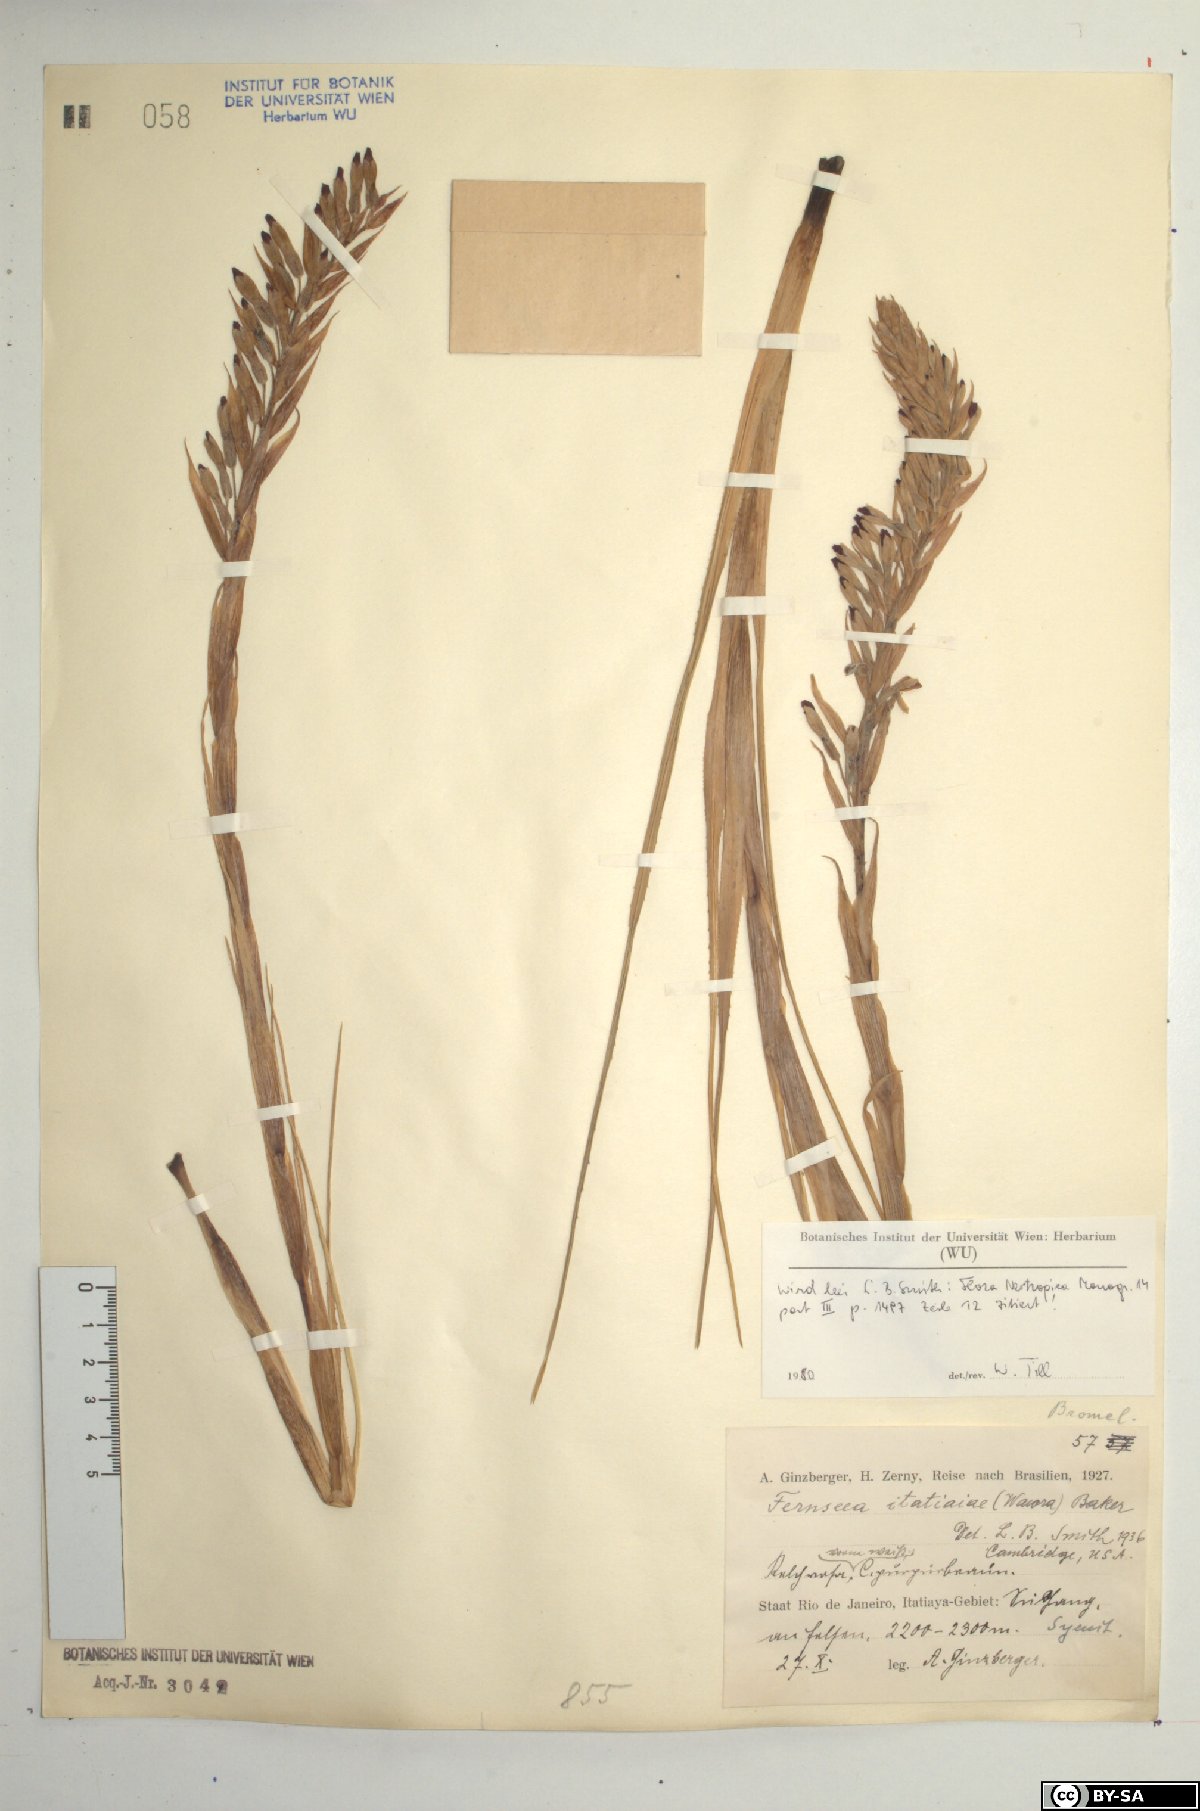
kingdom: Plantae
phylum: Tracheophyta
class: Liliopsida
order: Poales
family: Bromeliaceae
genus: Fernseea
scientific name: Fernseea itatiaiae
